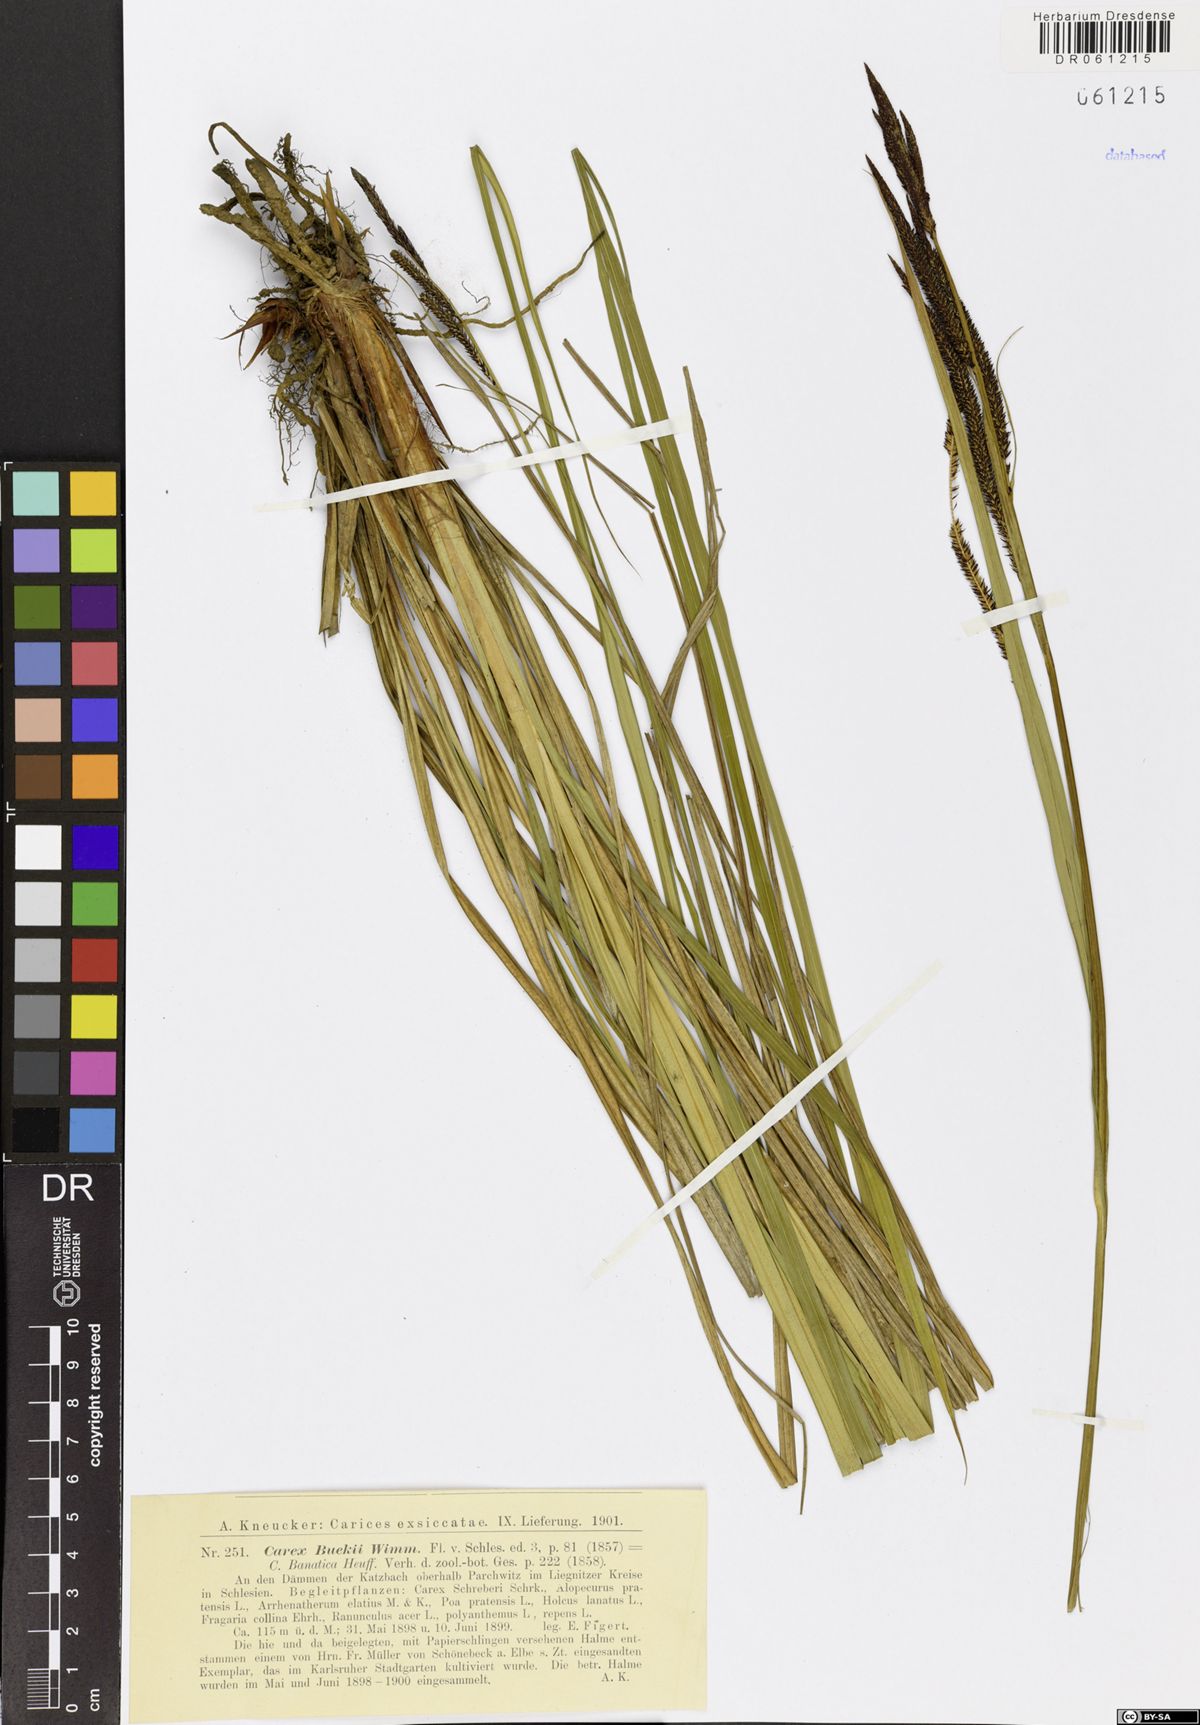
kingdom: Plantae
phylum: Tracheophyta
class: Liliopsida
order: Poales
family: Cyperaceae
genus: Carex
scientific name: Carex buekii
